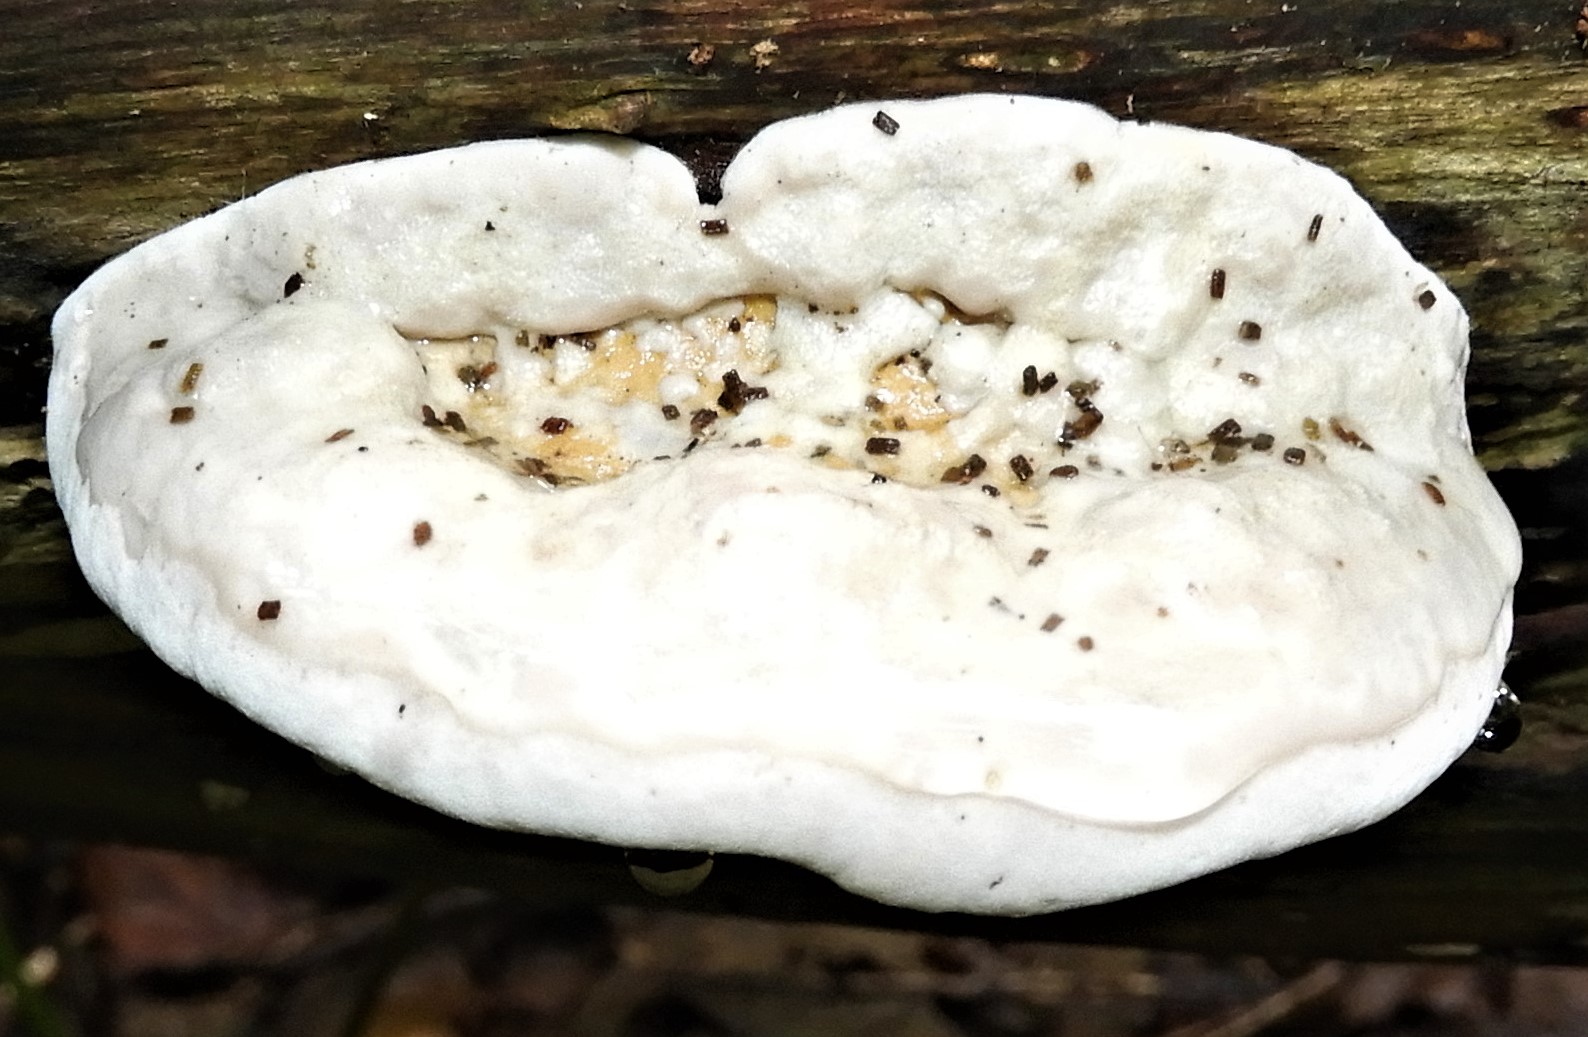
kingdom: Fungi
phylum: Basidiomycota
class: Agaricomycetes
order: Polyporales
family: Polyporaceae
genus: Trametes
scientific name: Trametes gibbosa
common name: puklet læderporesvamp
